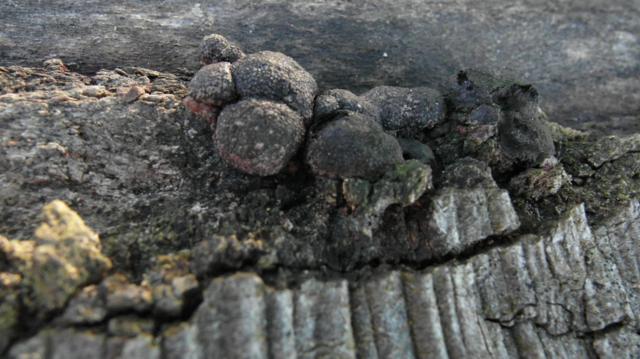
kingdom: Fungi
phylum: Ascomycota
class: Sordariomycetes
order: Xylariales
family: Hypoxylaceae
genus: Hypoxylon
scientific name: Hypoxylon fragiforme
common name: kuljordbær
